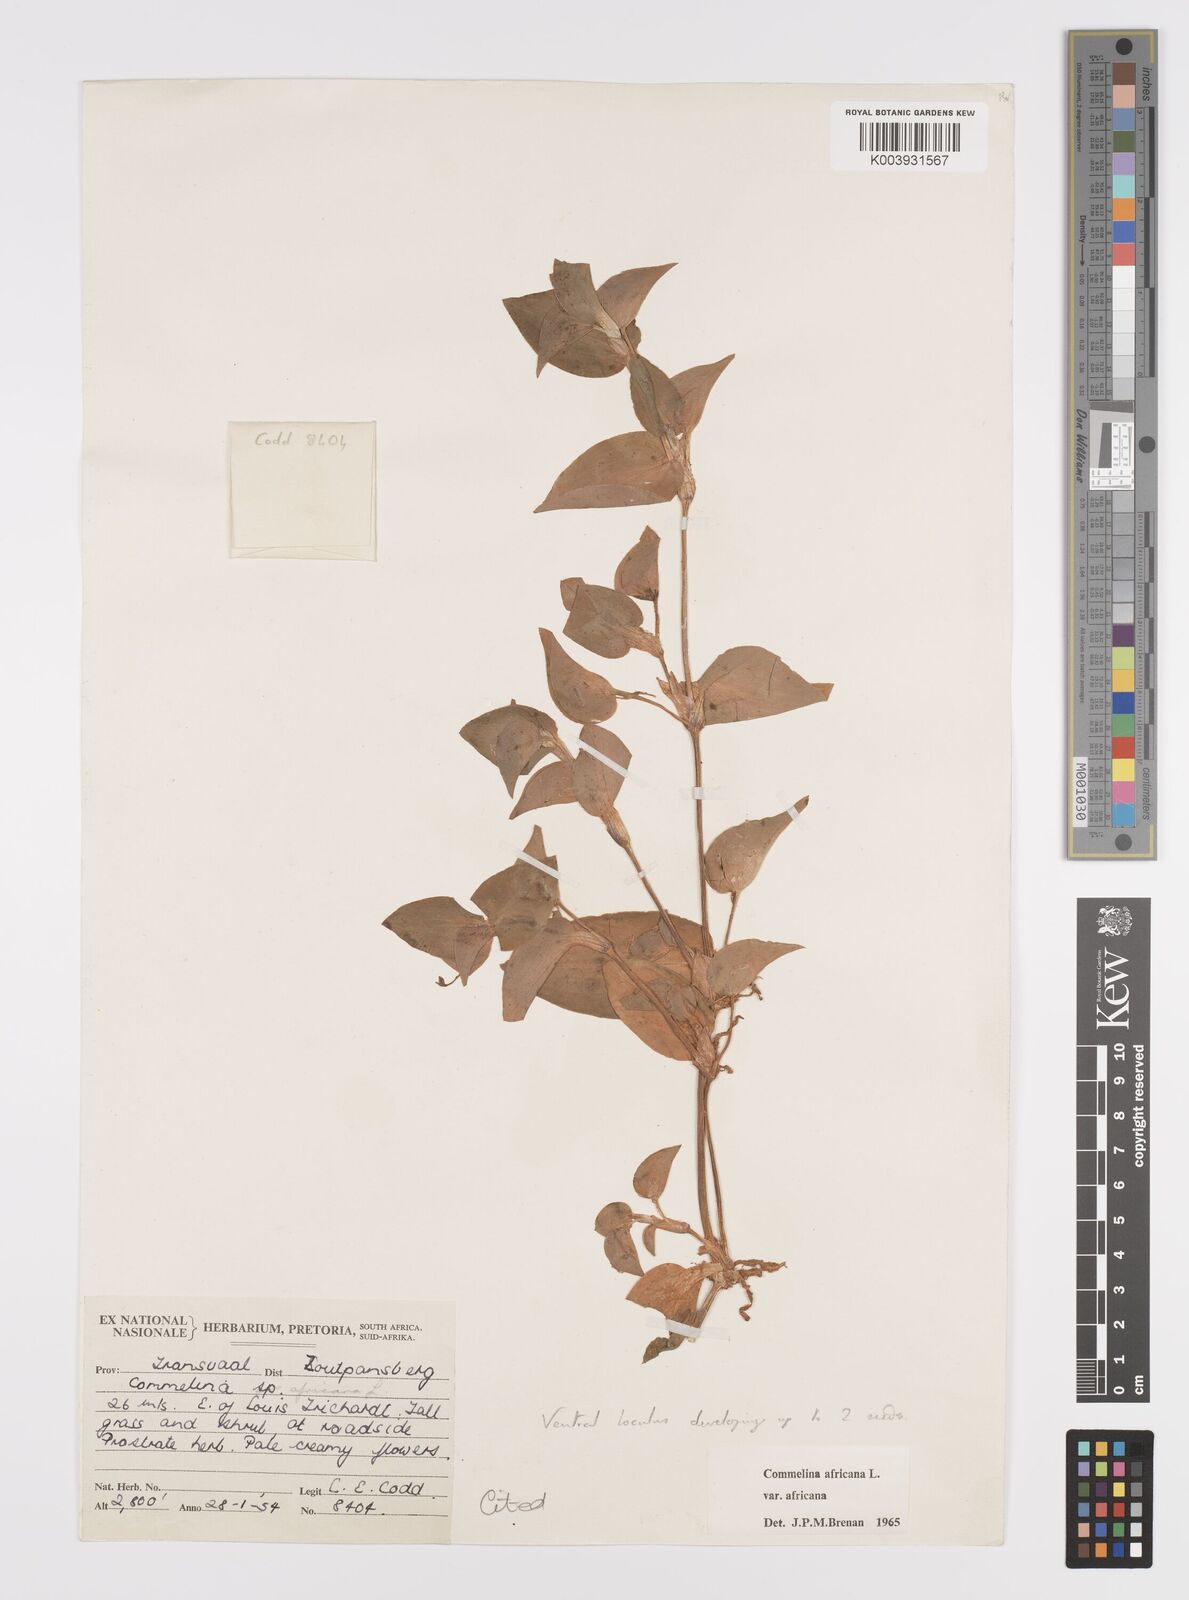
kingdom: Plantae
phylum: Tracheophyta
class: Liliopsida
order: Commelinales
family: Commelinaceae
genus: Commelina
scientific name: Commelina africana
